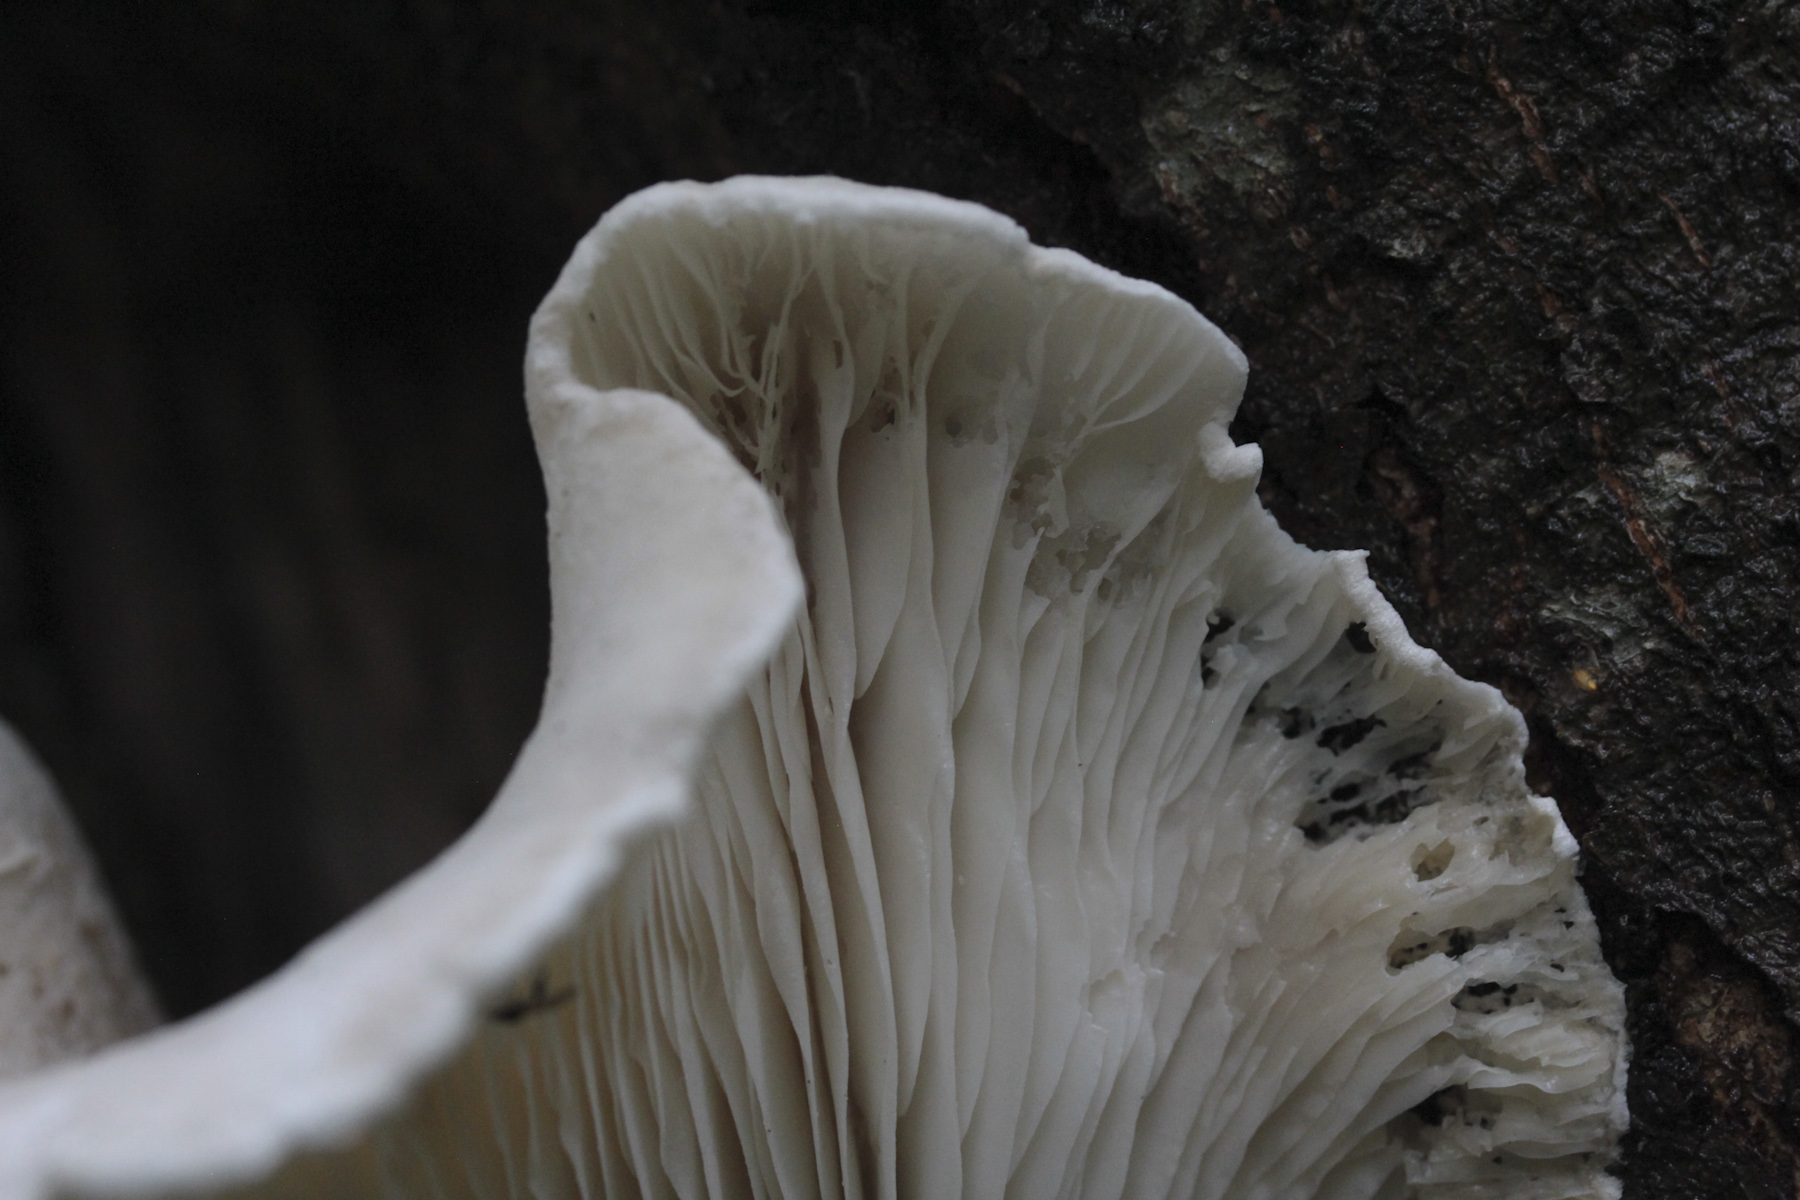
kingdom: Fungi
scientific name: Fungi
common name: Fungi
